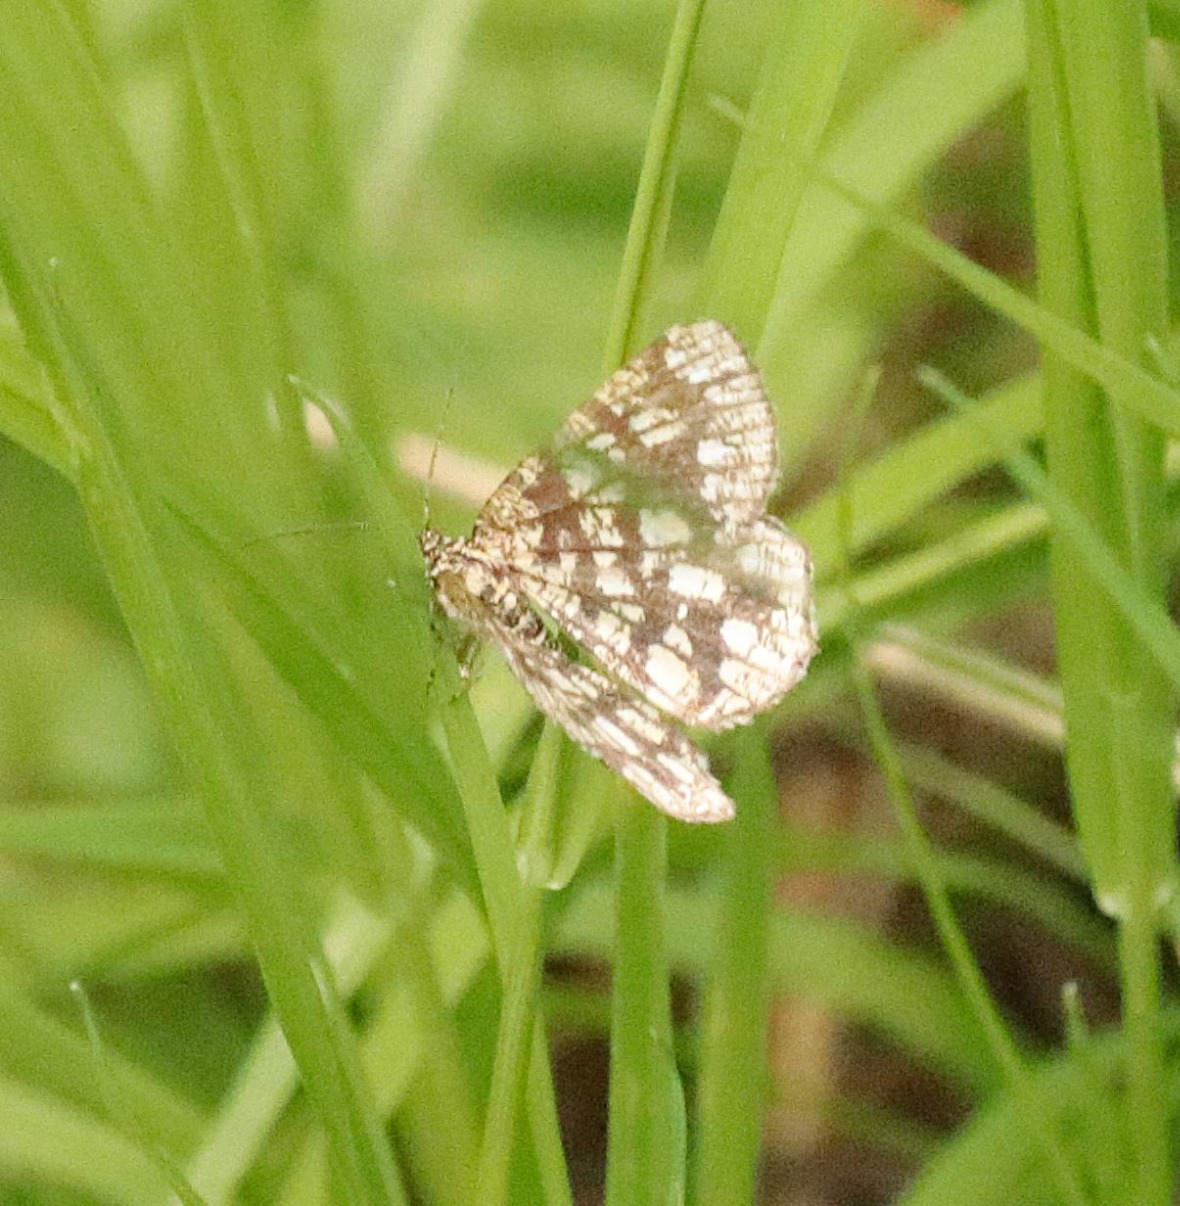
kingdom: Animalia
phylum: Arthropoda
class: Insecta
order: Lepidoptera
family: Geometridae
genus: Chiasmia
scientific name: Chiasmia clathrata
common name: Kløvermåler
